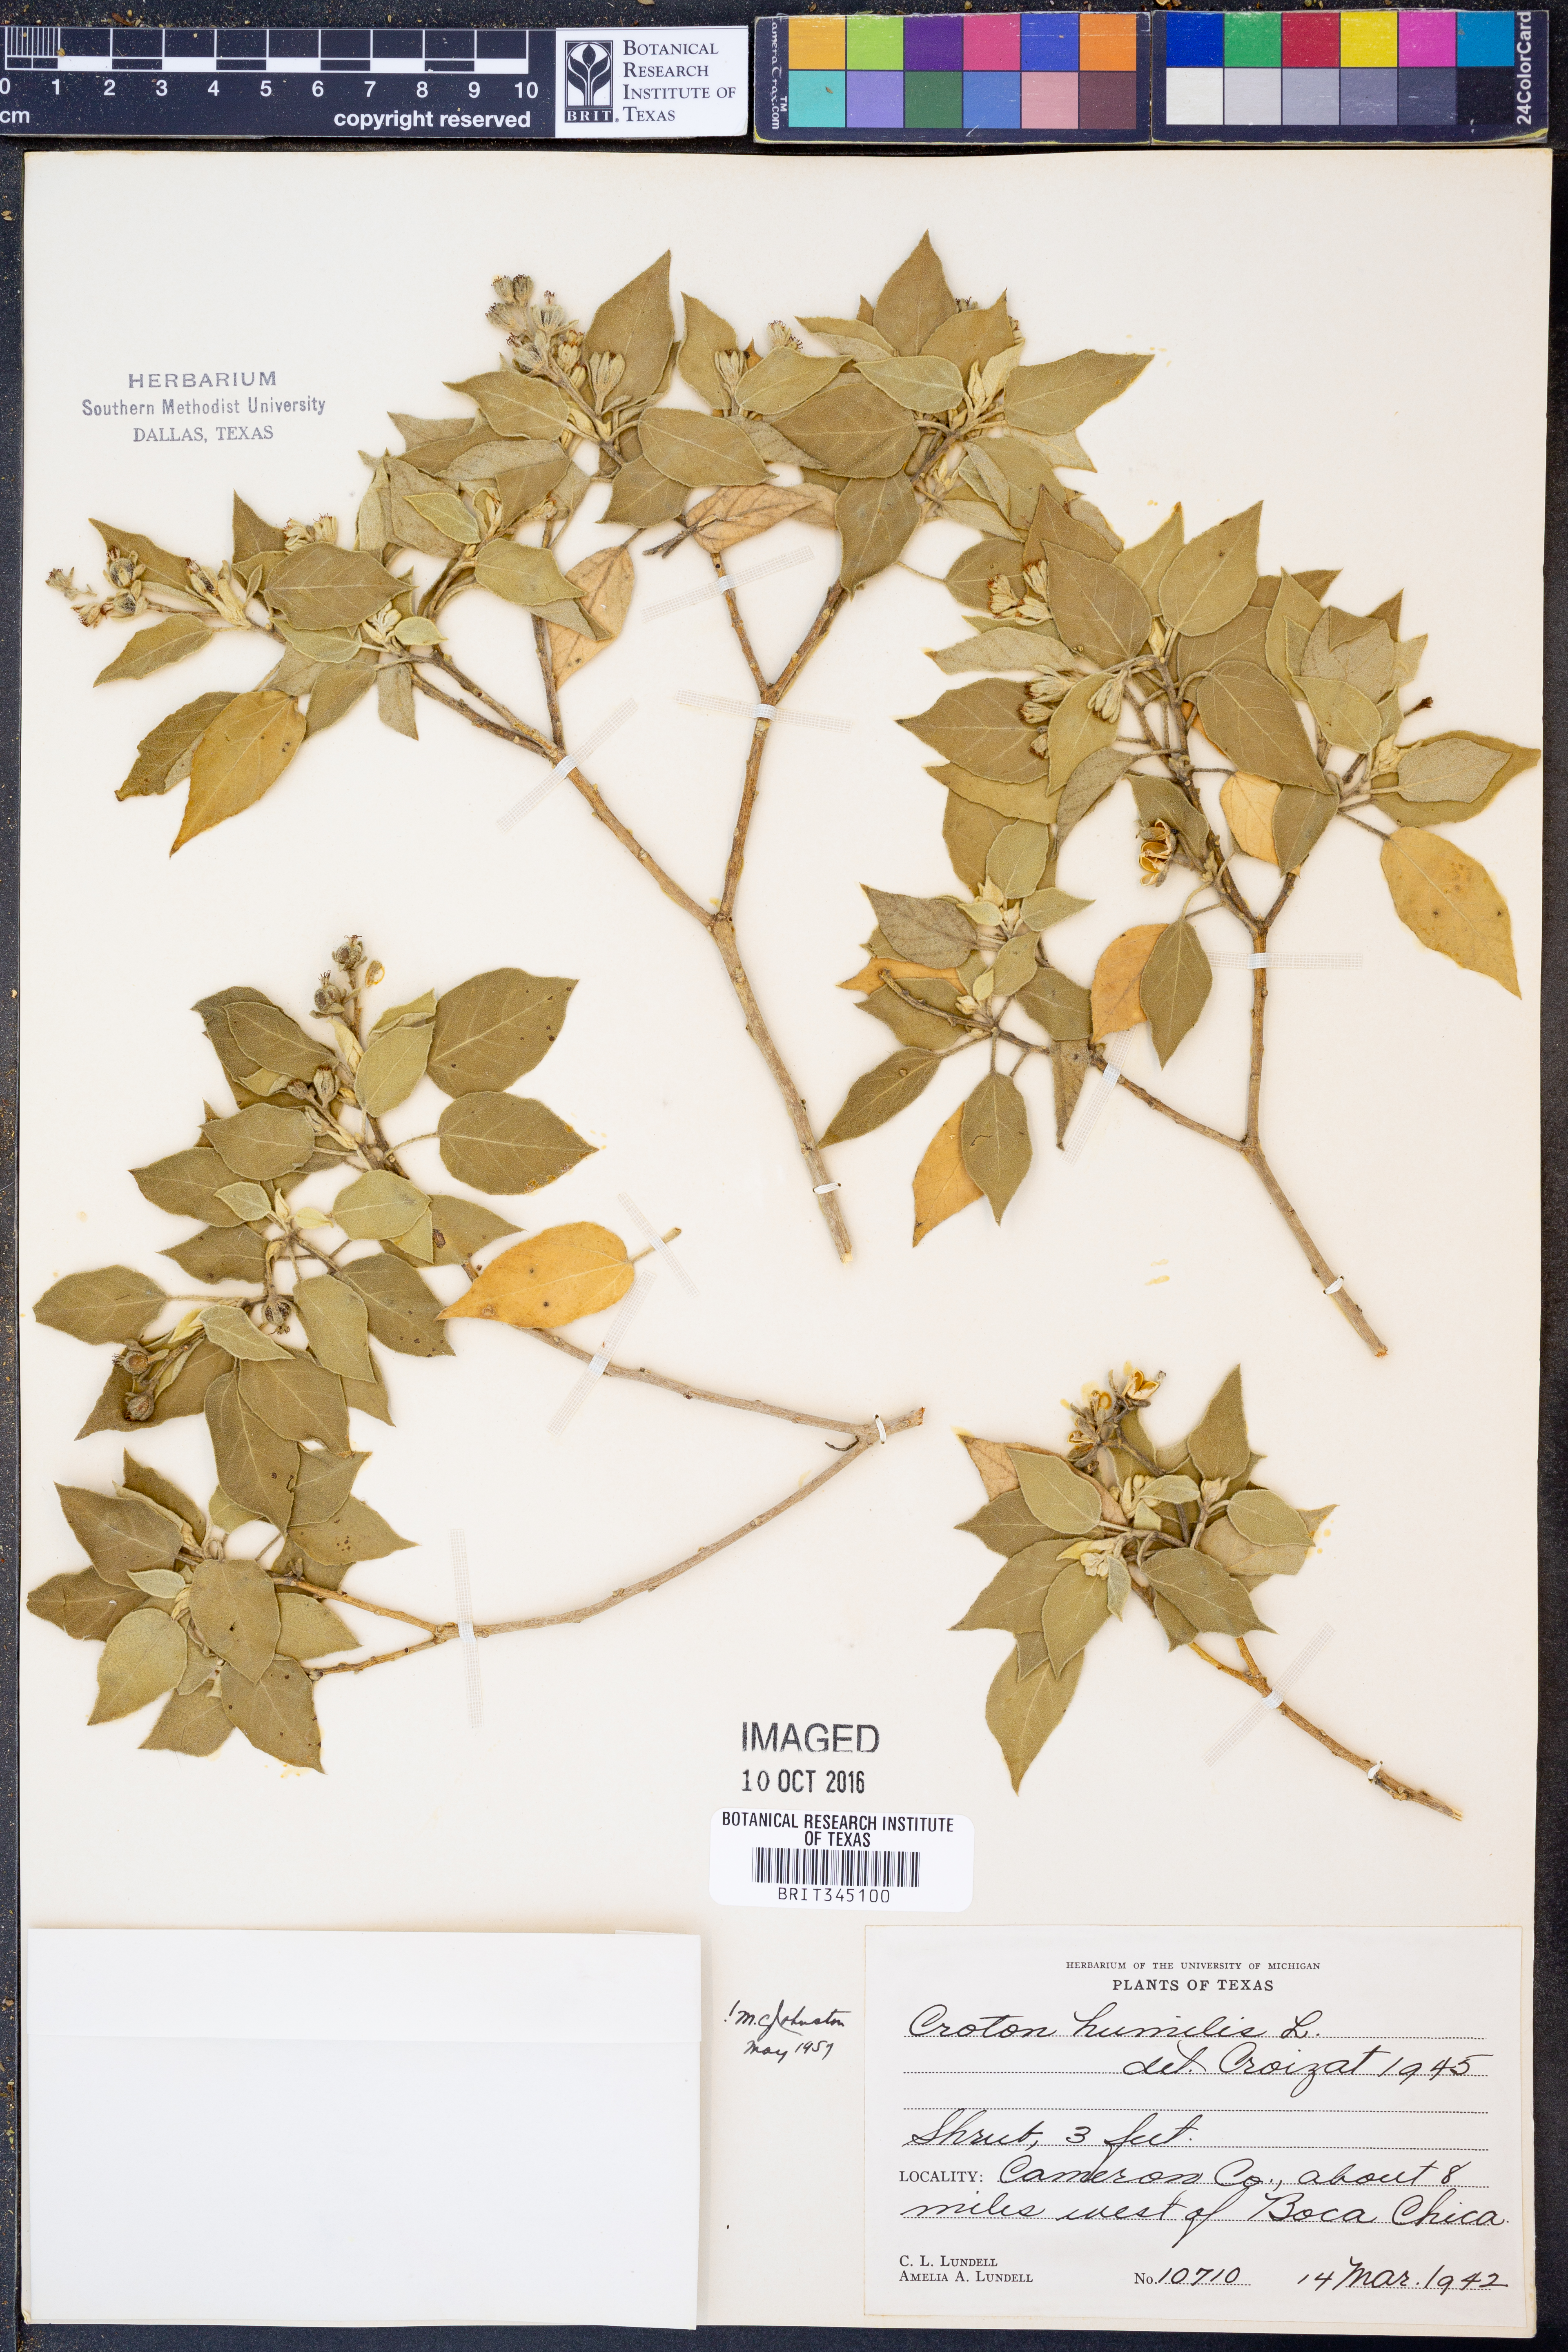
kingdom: Plantae
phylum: Tracheophyta
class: Magnoliopsida
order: Malpighiales
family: Euphorbiaceae
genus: Croton
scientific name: Croton humilis
